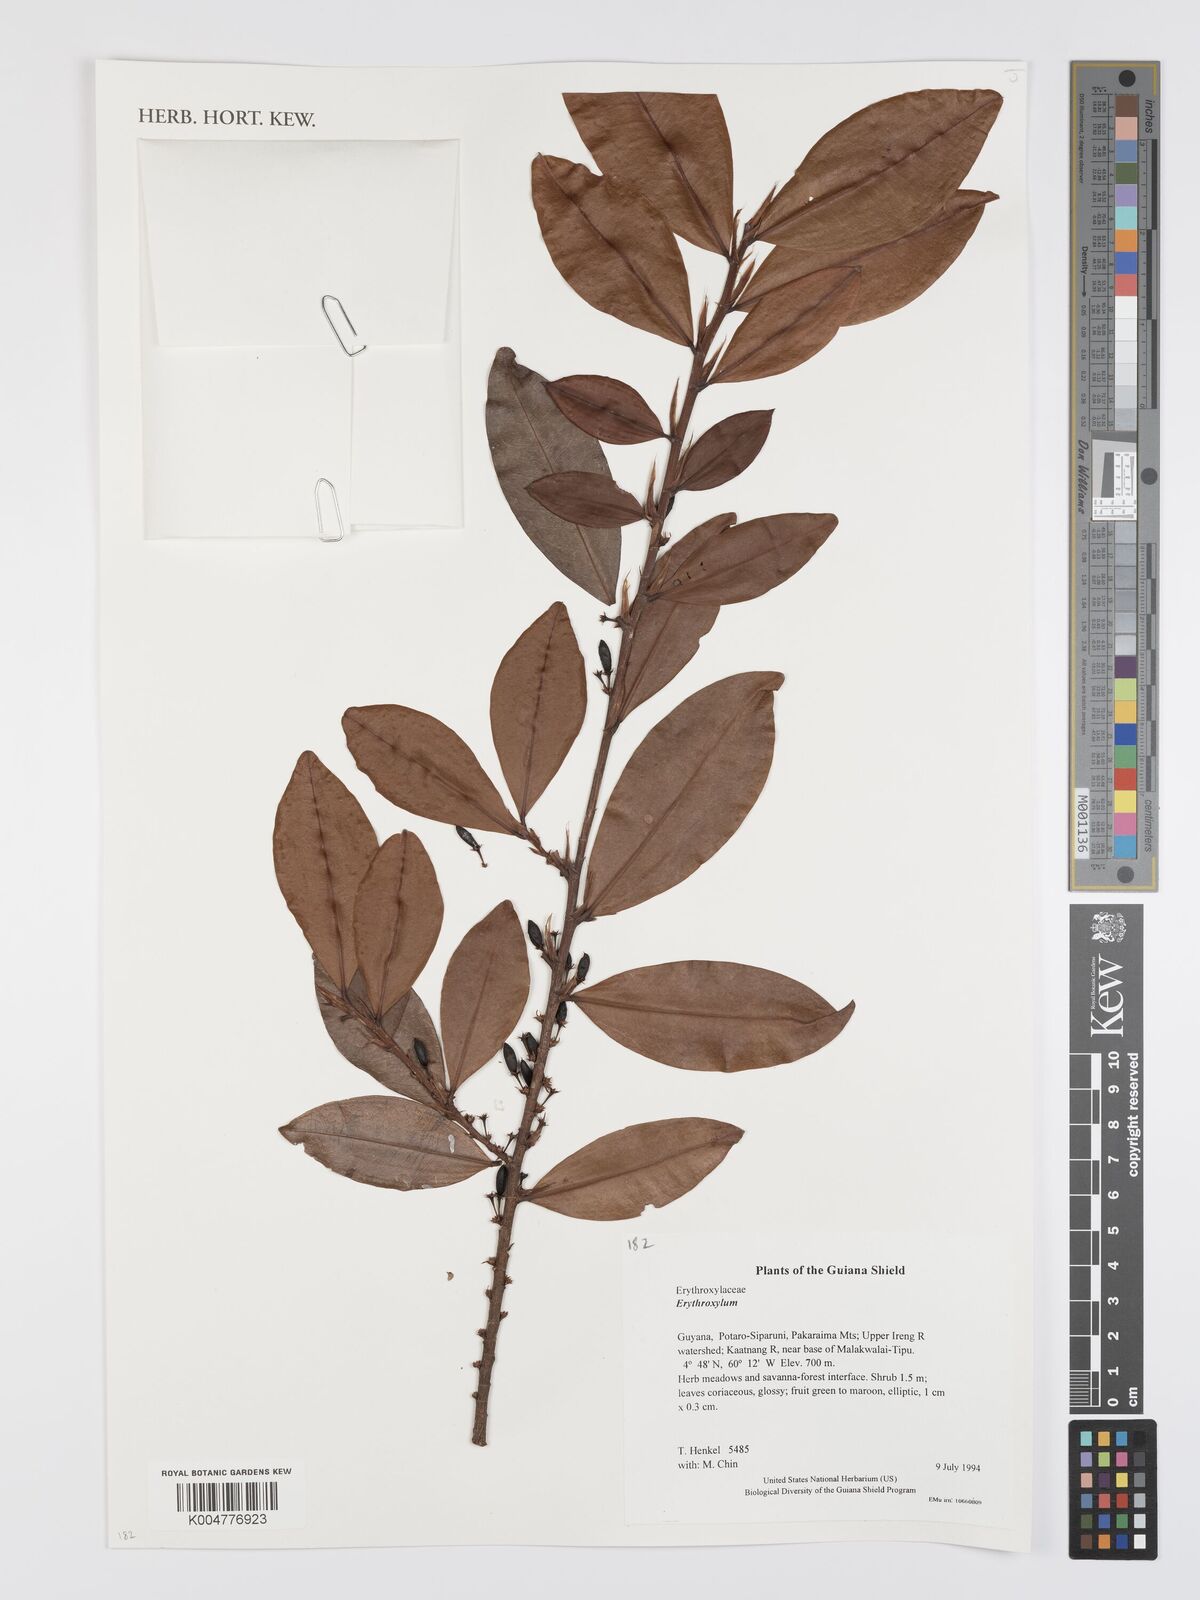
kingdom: Plantae
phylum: Tracheophyta
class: Magnoliopsida
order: Malpighiales
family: Erythroxylaceae
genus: Erythroxylum
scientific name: Erythroxylum
